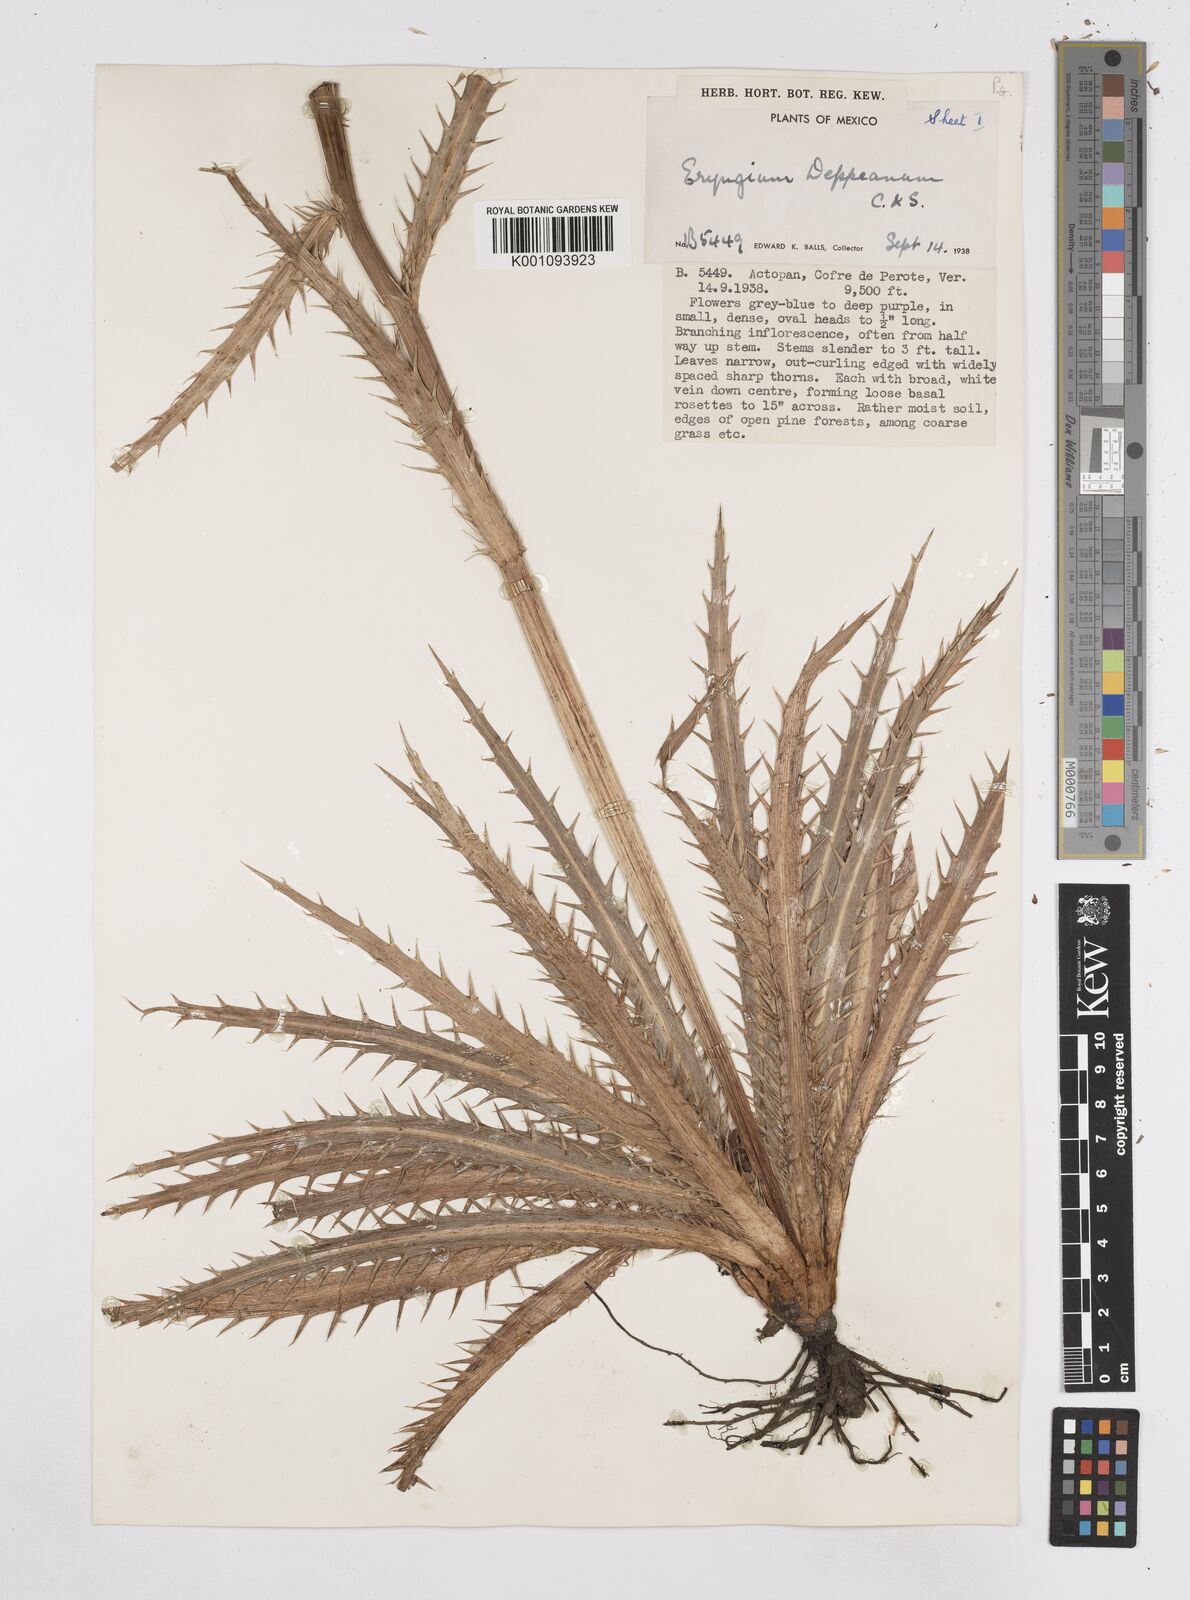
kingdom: Plantae
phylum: Tracheophyta
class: Magnoliopsida
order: Apiales
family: Apiaceae
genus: Eryngium
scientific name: Eryngium
